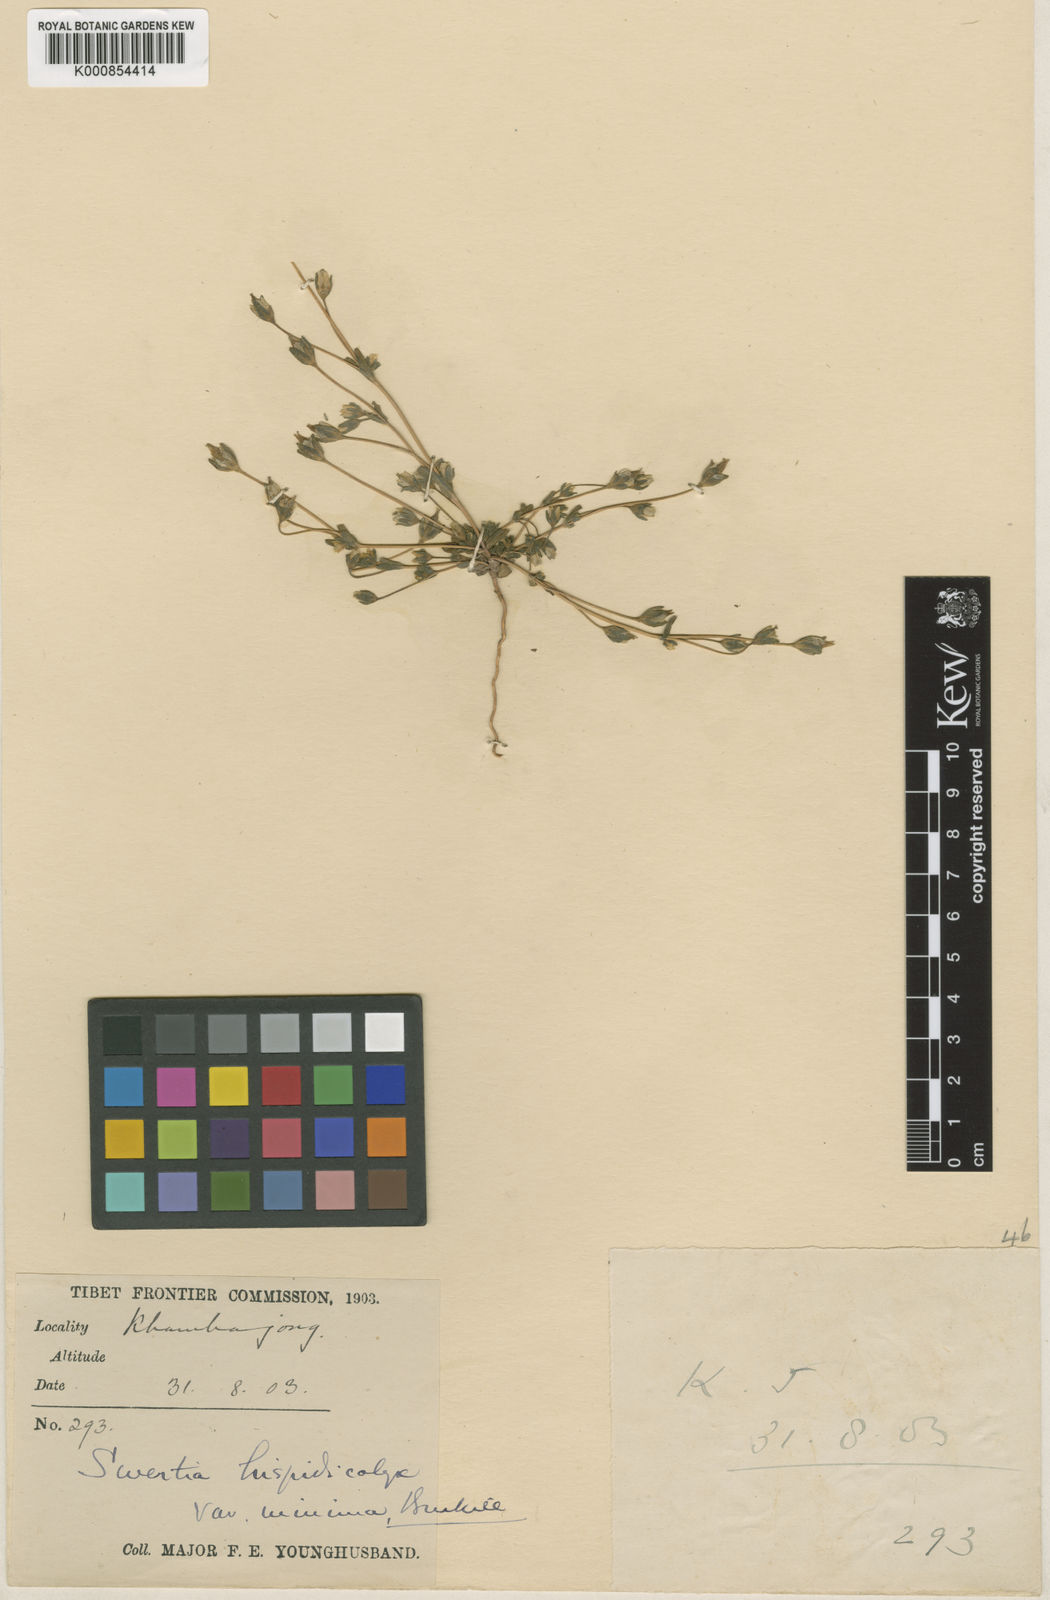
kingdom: Plantae
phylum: Tracheophyta
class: Magnoliopsida
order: Gentianales
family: Gentianaceae
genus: Swertia
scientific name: Swertia hispidicalyx
